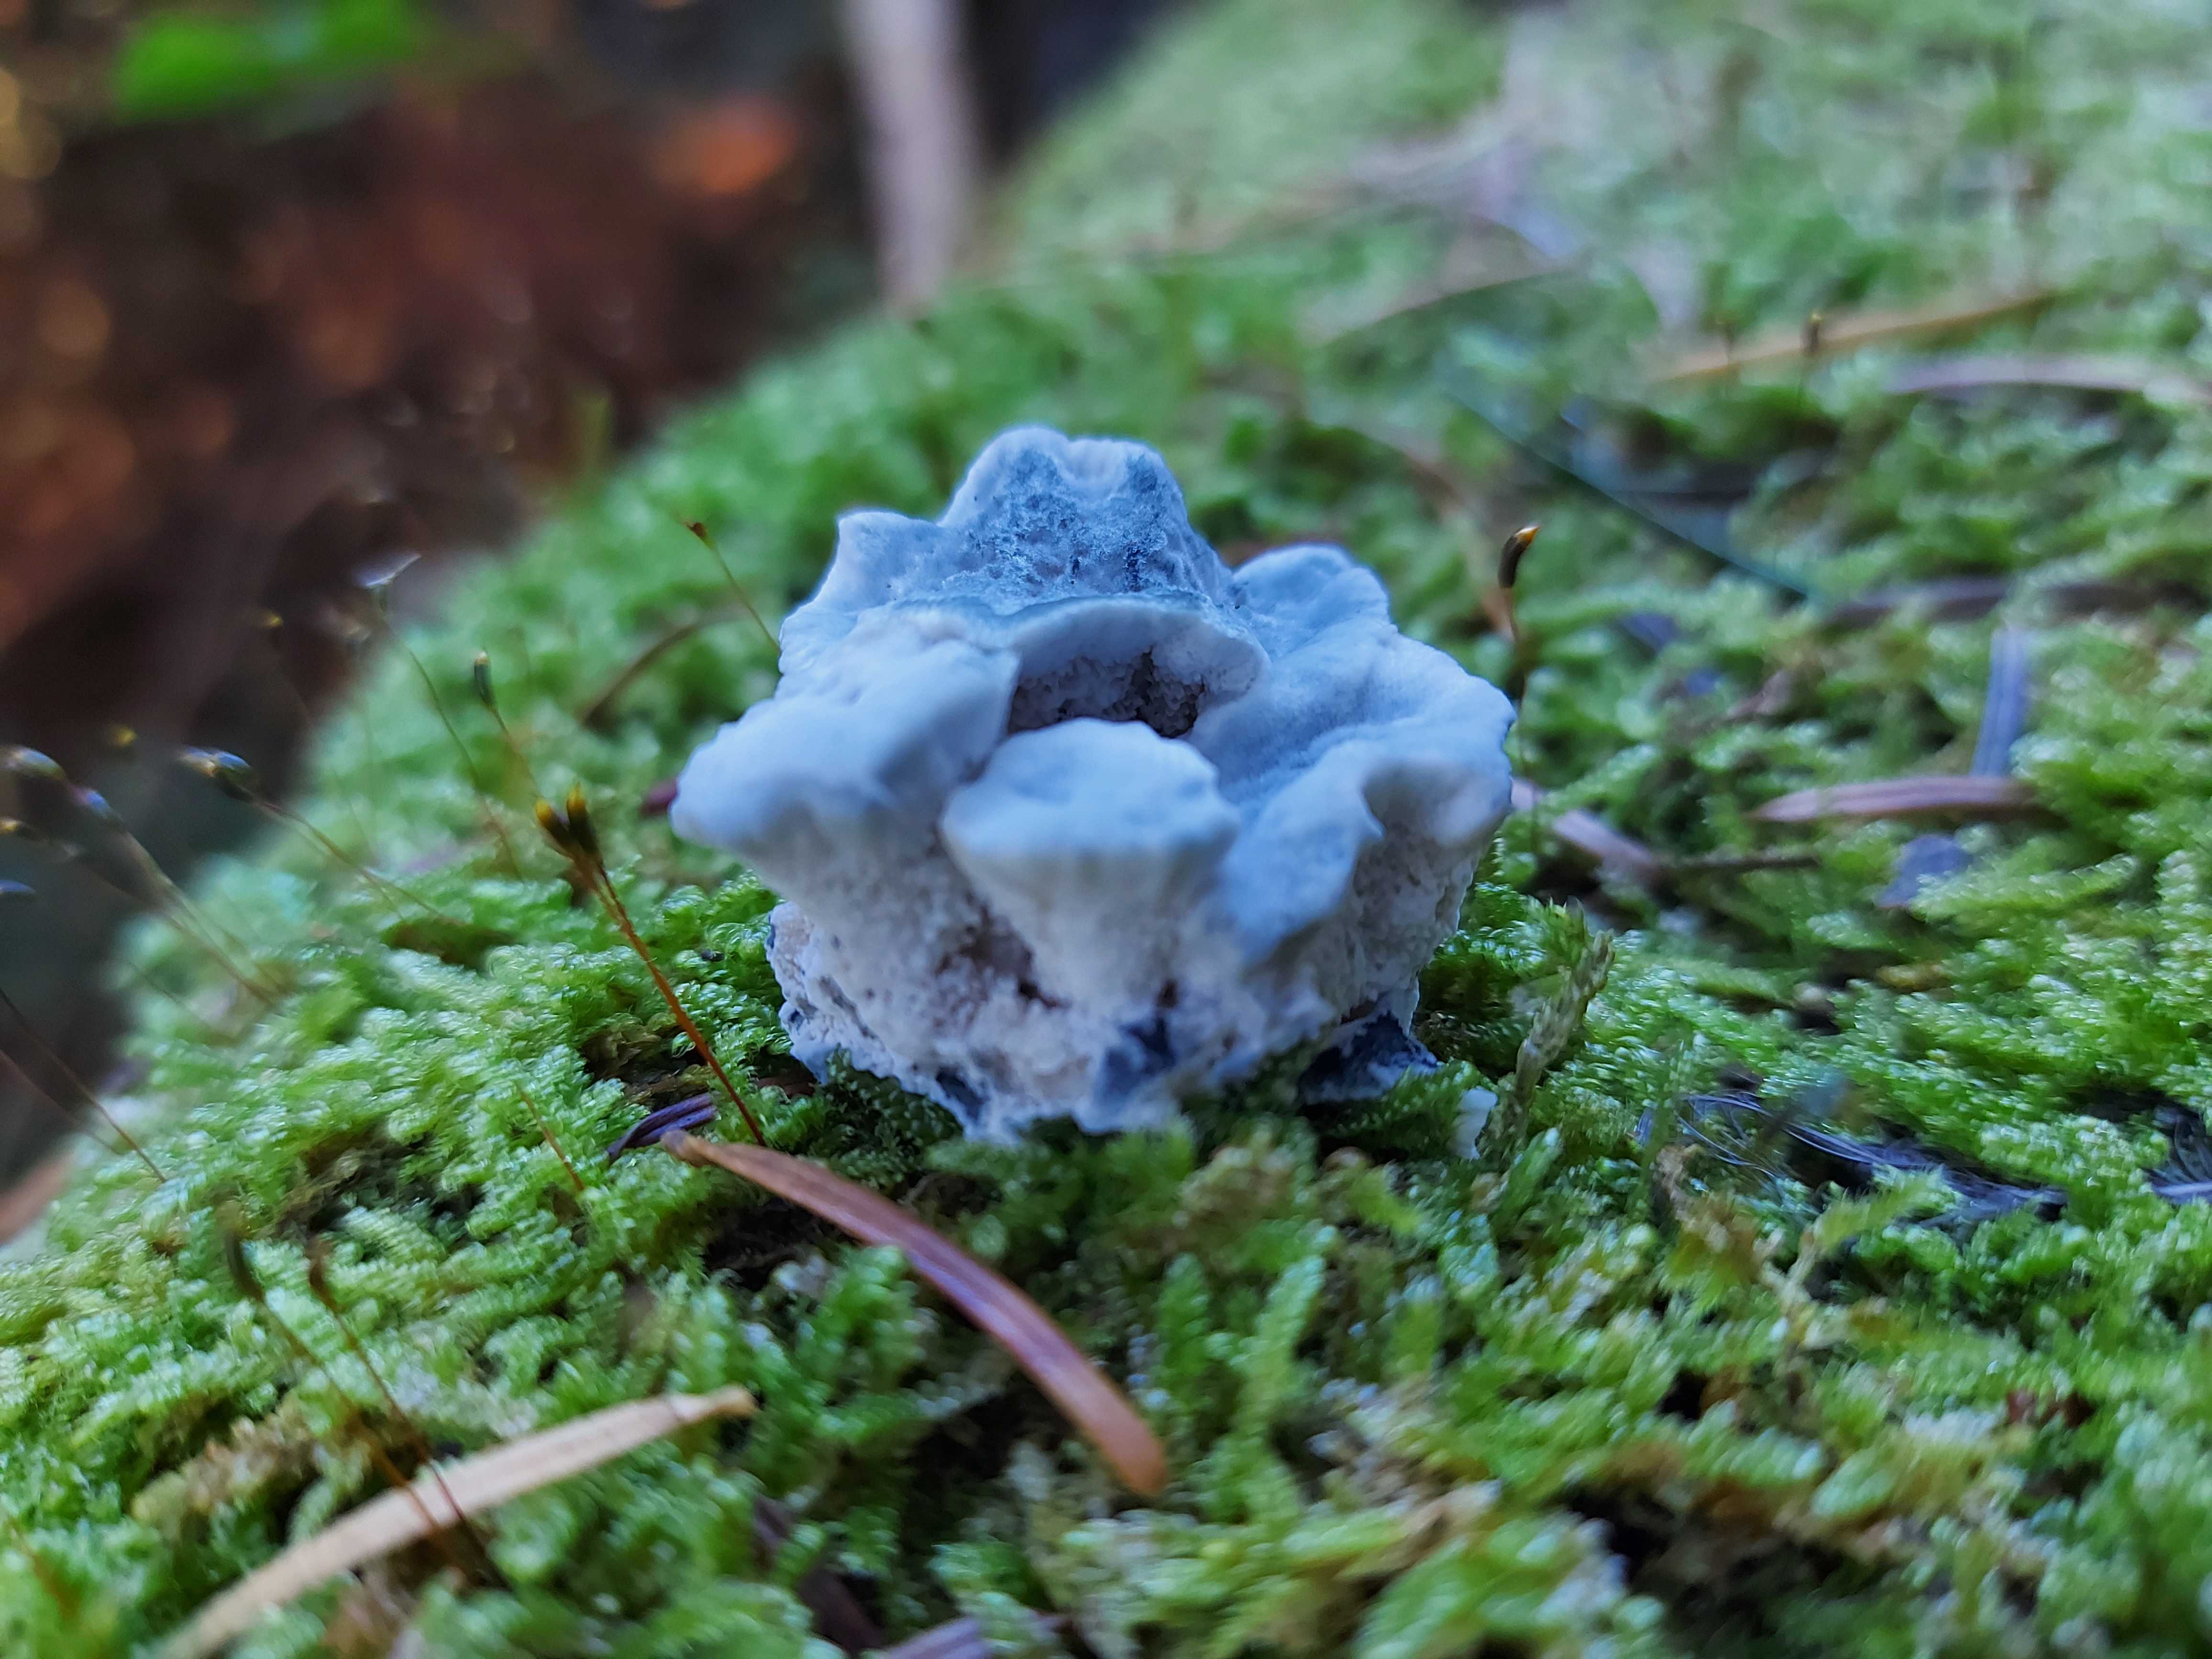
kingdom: Fungi
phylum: Basidiomycota
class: Agaricomycetes
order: Polyporales
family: Polyporaceae
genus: Cyanosporus
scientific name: Cyanosporus caesius
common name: blålig kødporesvamp
